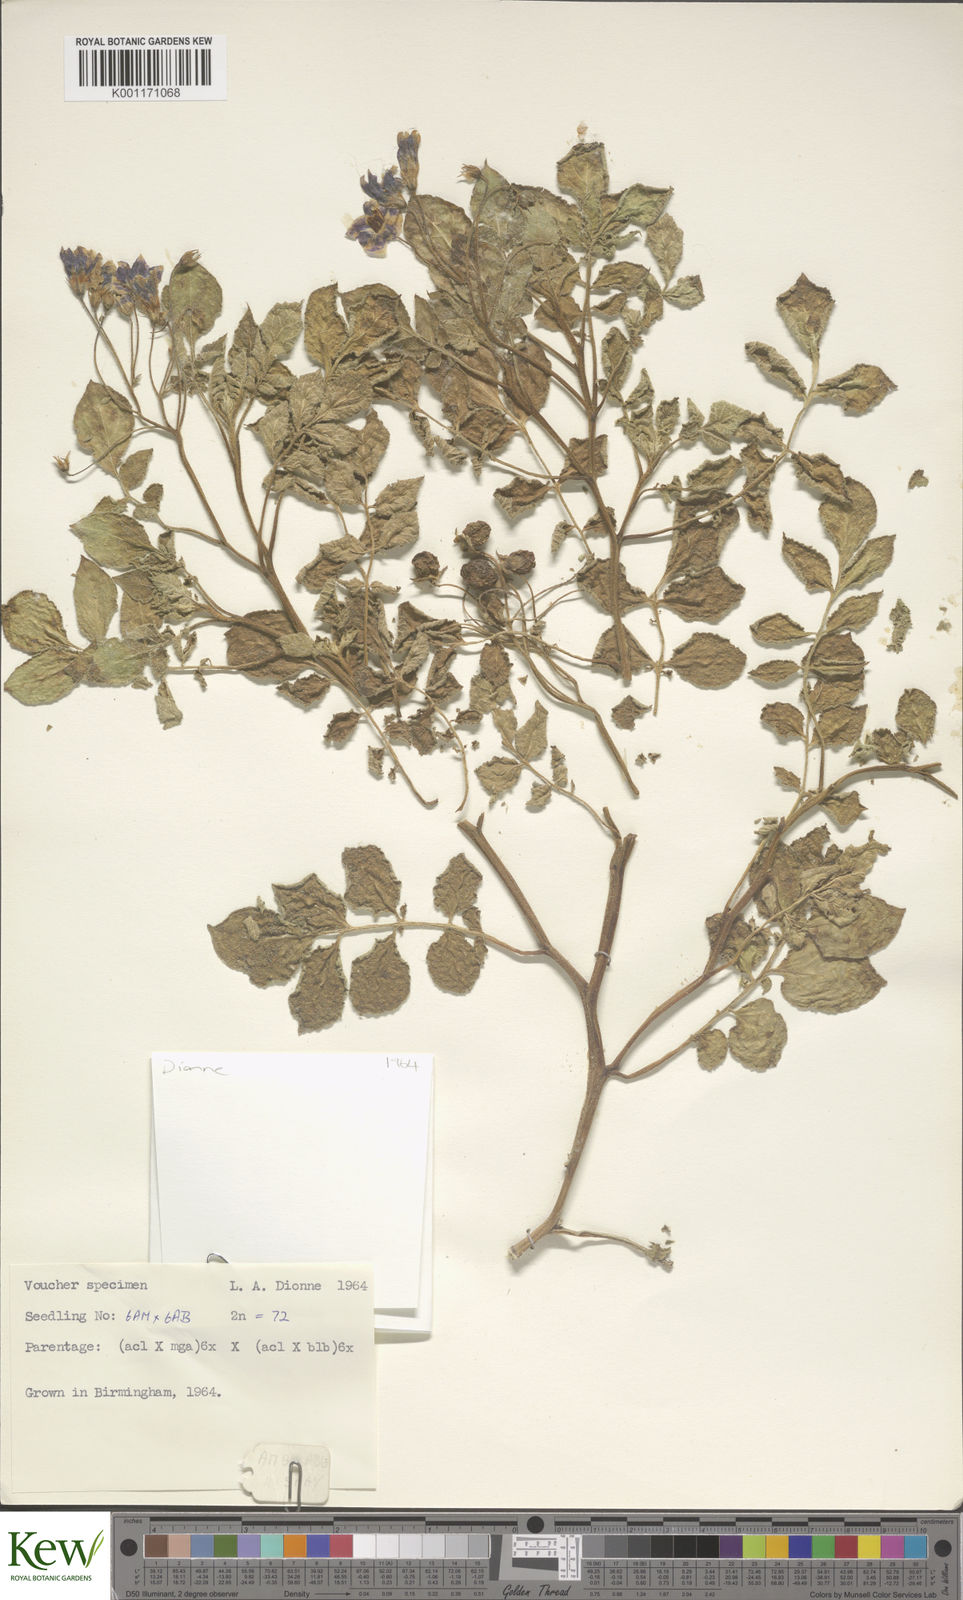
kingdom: Plantae
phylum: Tracheophyta
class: Magnoliopsida
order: Solanales
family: Solanaceae
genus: Solanum
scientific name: Solanum acaule
